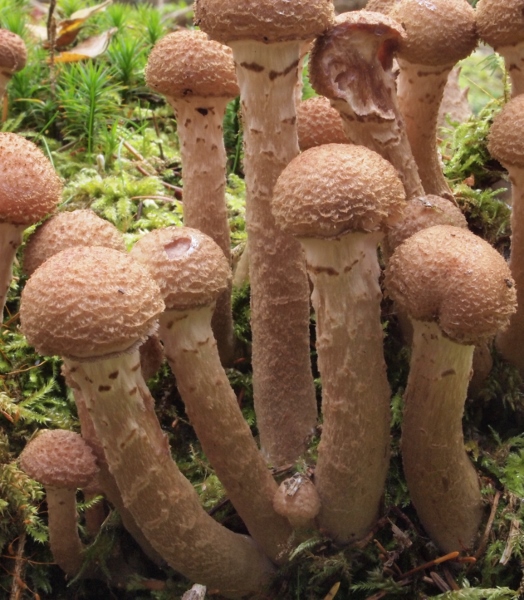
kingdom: Fungi
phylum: Basidiomycota
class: Agaricomycetes
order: Agaricales
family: Physalacriaceae
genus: Armillaria
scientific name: Armillaria ostoyae
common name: mørk honningsvamp
